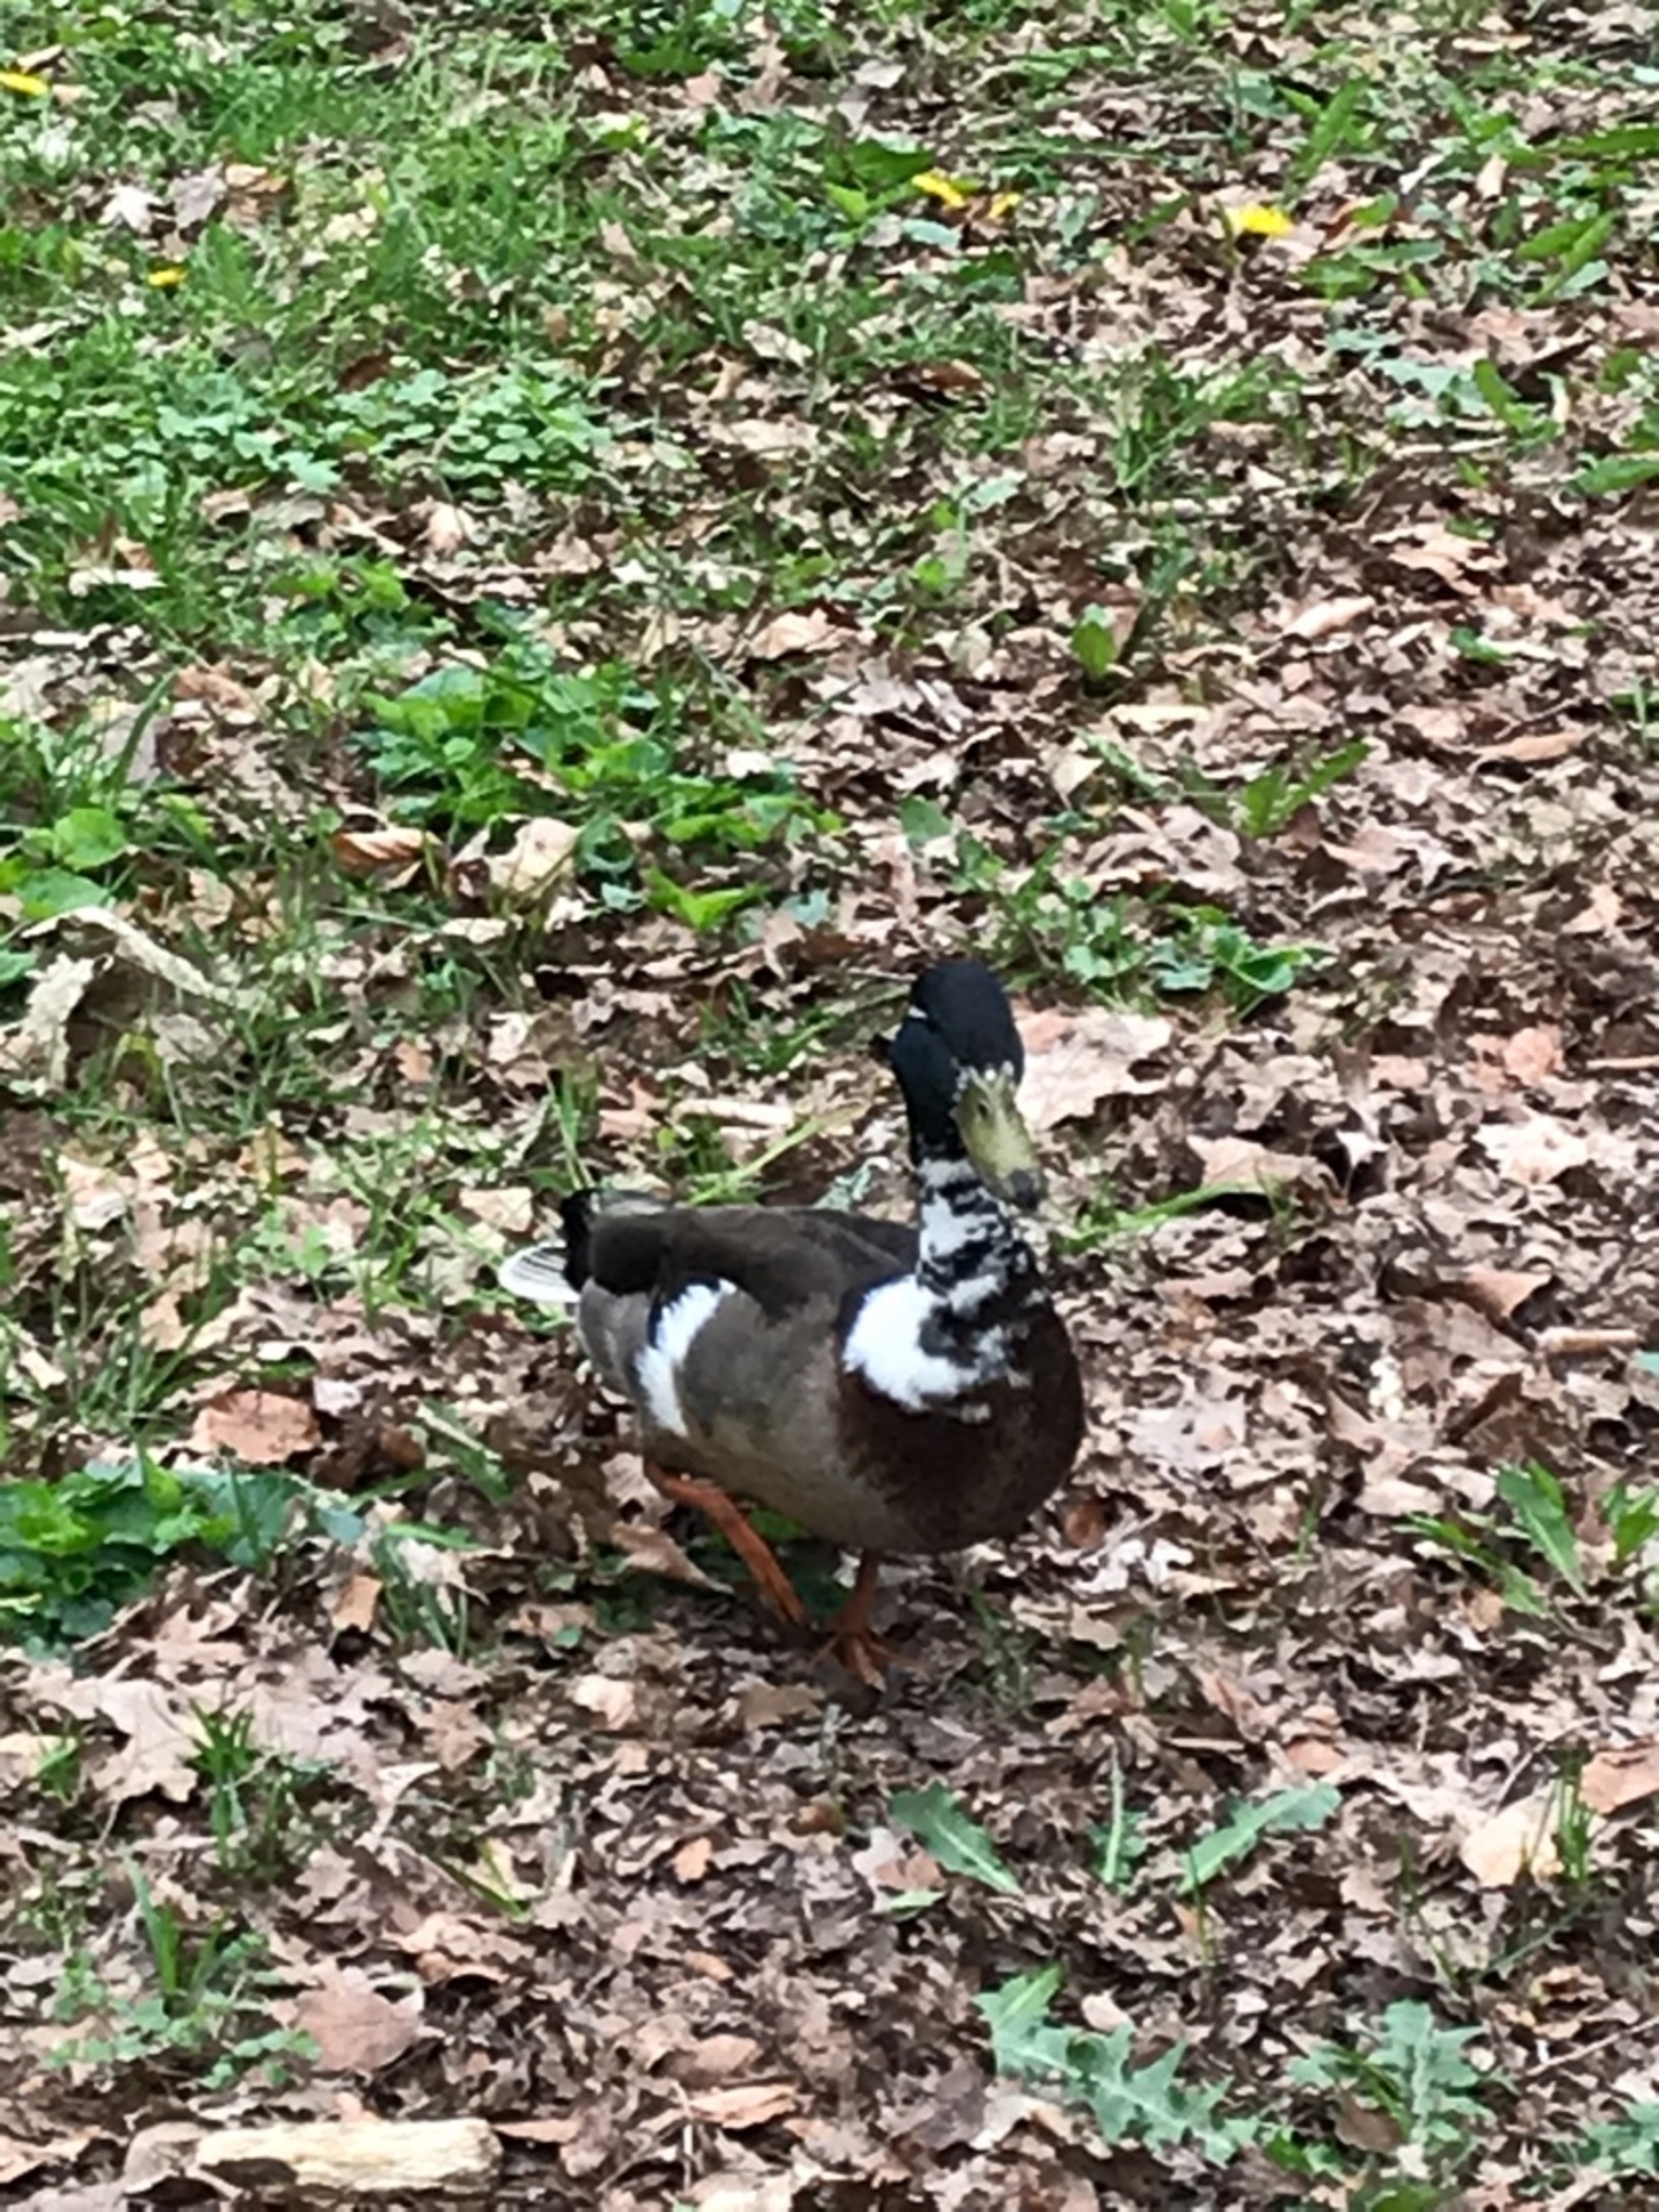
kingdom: Animalia
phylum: Chordata
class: Aves
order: Anseriformes
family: Anatidae
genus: Anas
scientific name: Anas platyrhynchos
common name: Gråand
